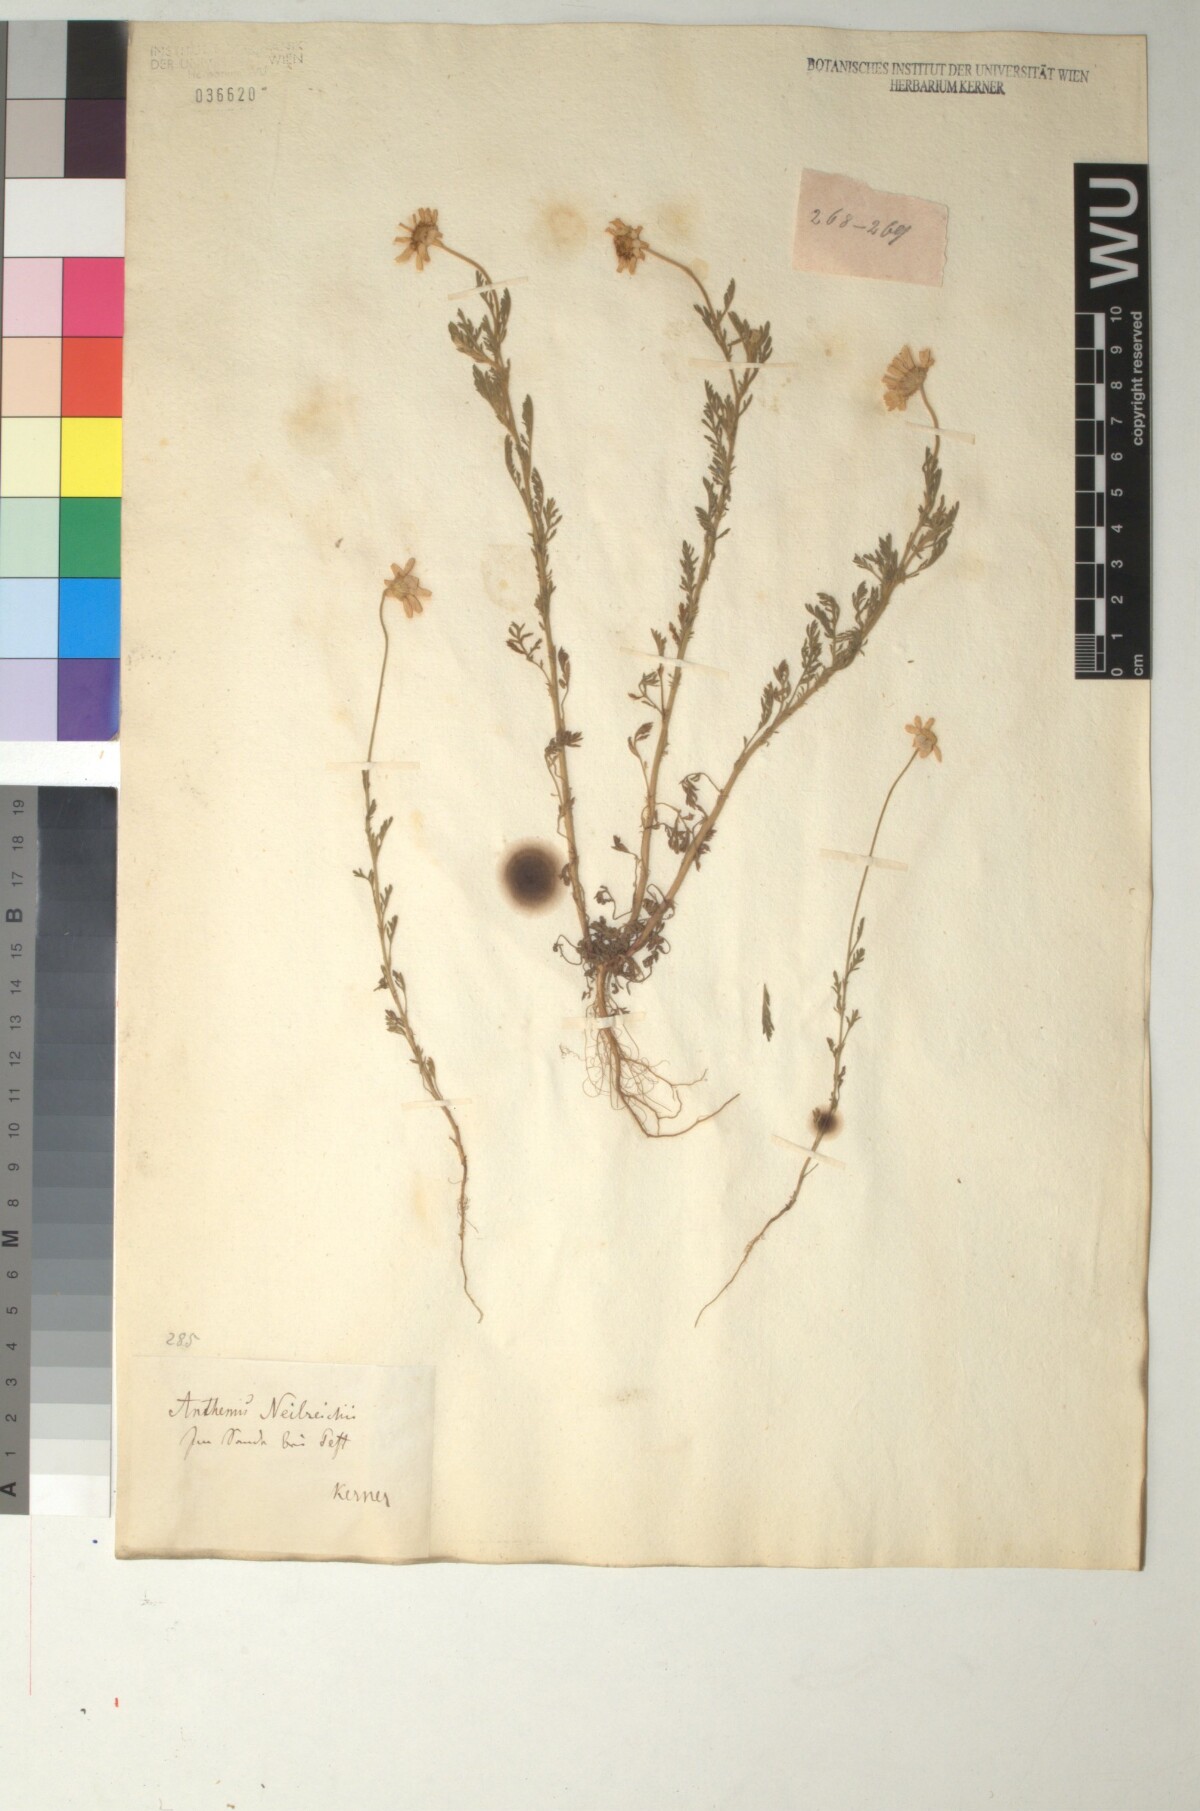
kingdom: Plantae
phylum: Tracheophyta
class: Magnoliopsida
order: Asterales
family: Asteraceae
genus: Anthemis
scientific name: Anthemis ruthenica
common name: Eastern chamomile
